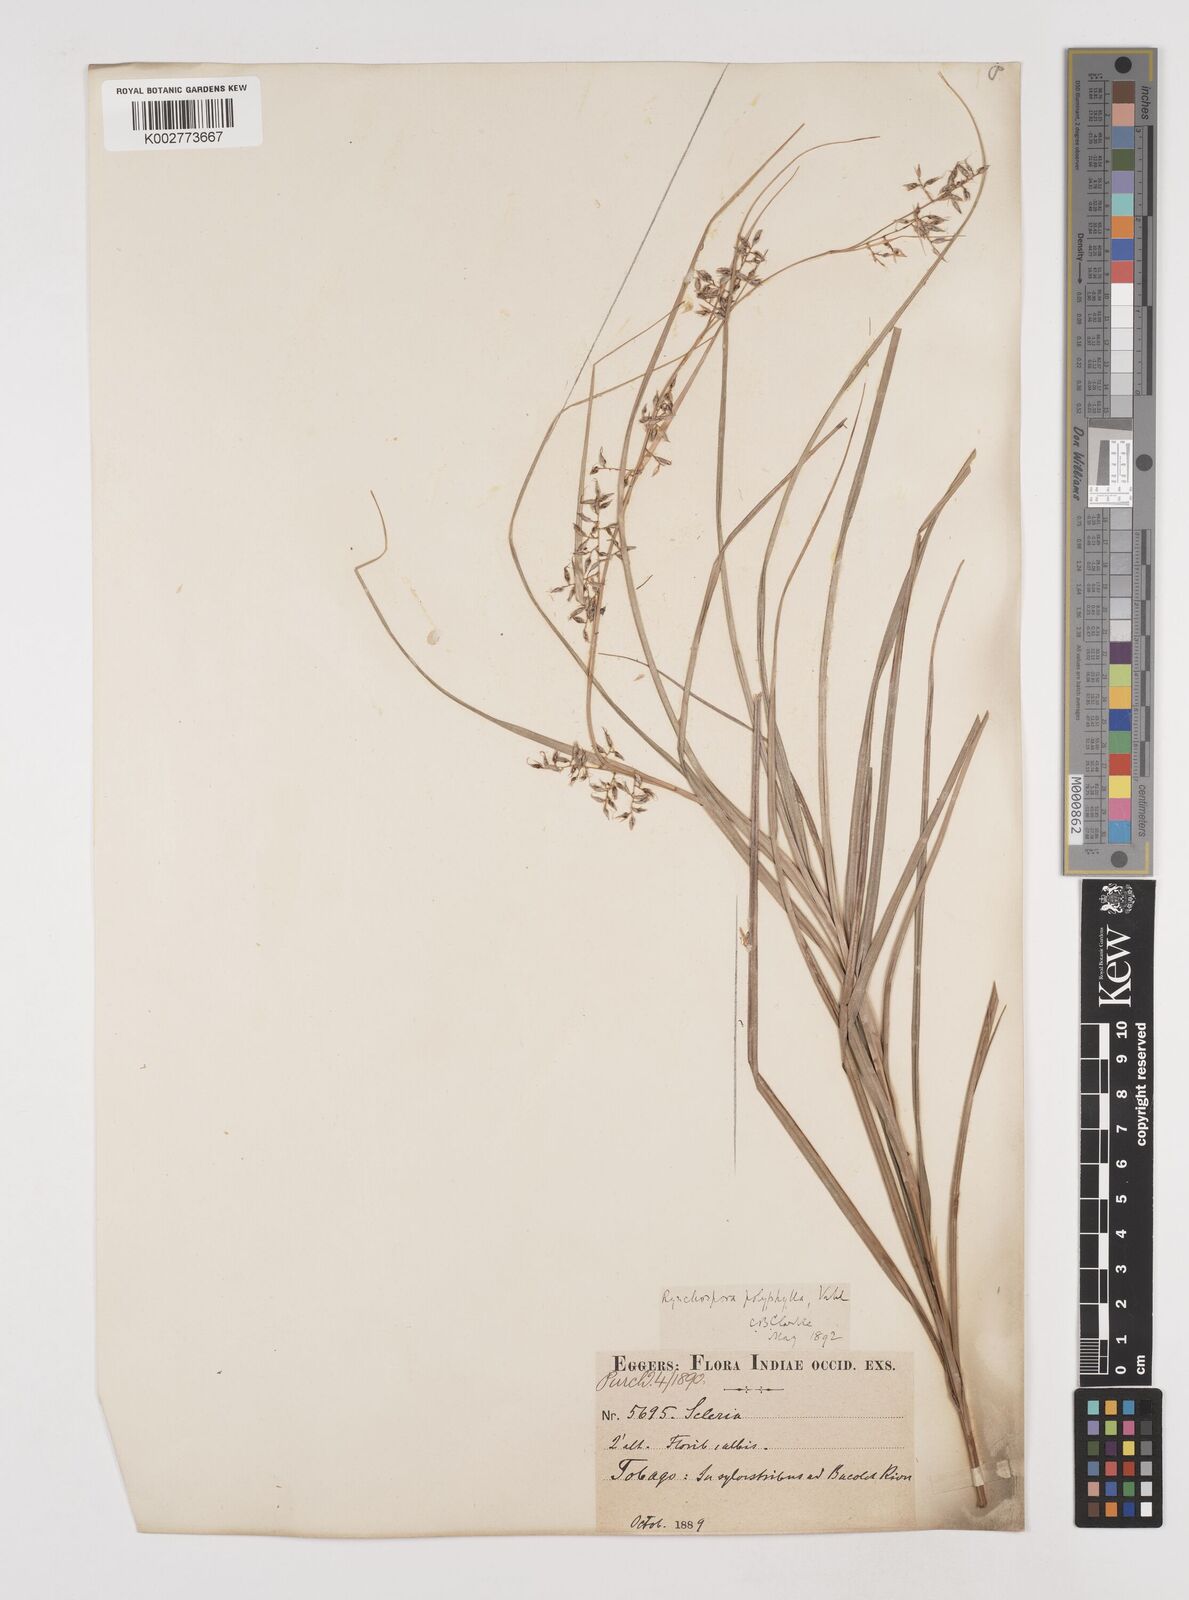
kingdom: Plantae
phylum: Tracheophyta
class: Liliopsida
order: Poales
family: Cyperaceae
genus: Rhynchospora
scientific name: Rhynchospora polyphylla
